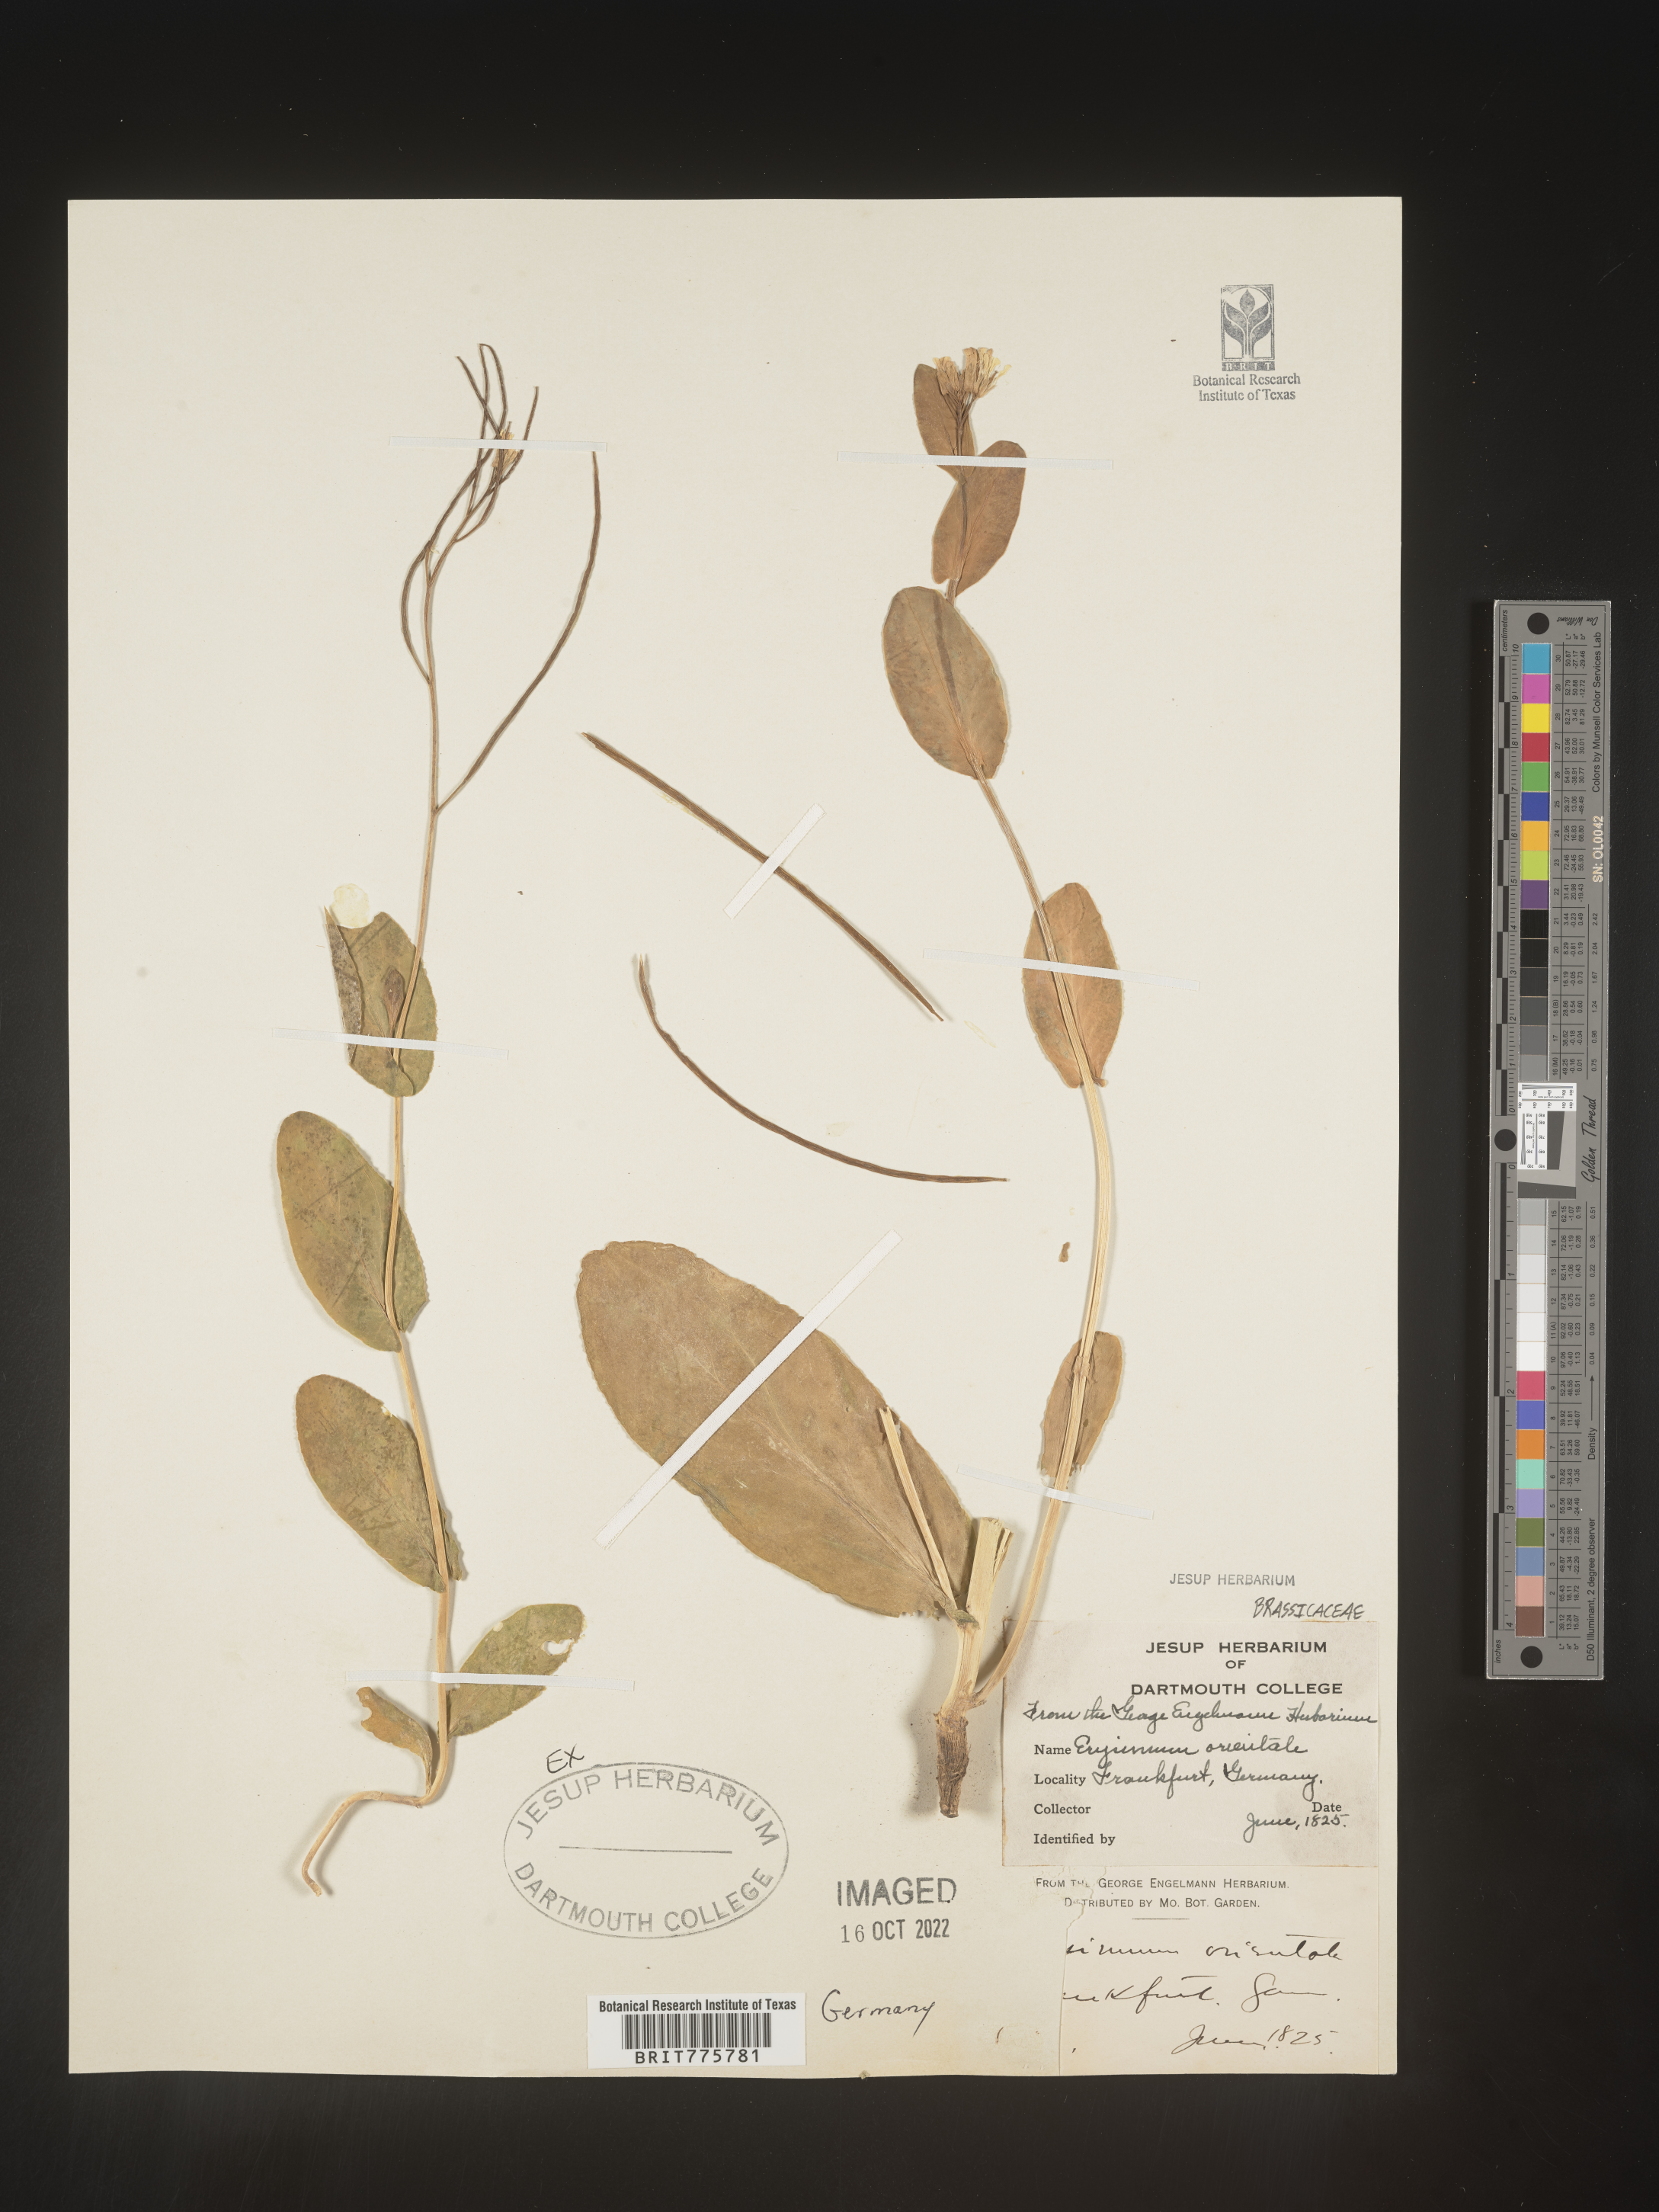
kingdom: Plantae
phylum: Tracheophyta
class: Magnoliopsida
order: Brassicales
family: Brassicaceae
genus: Erysimum
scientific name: Erysimum
